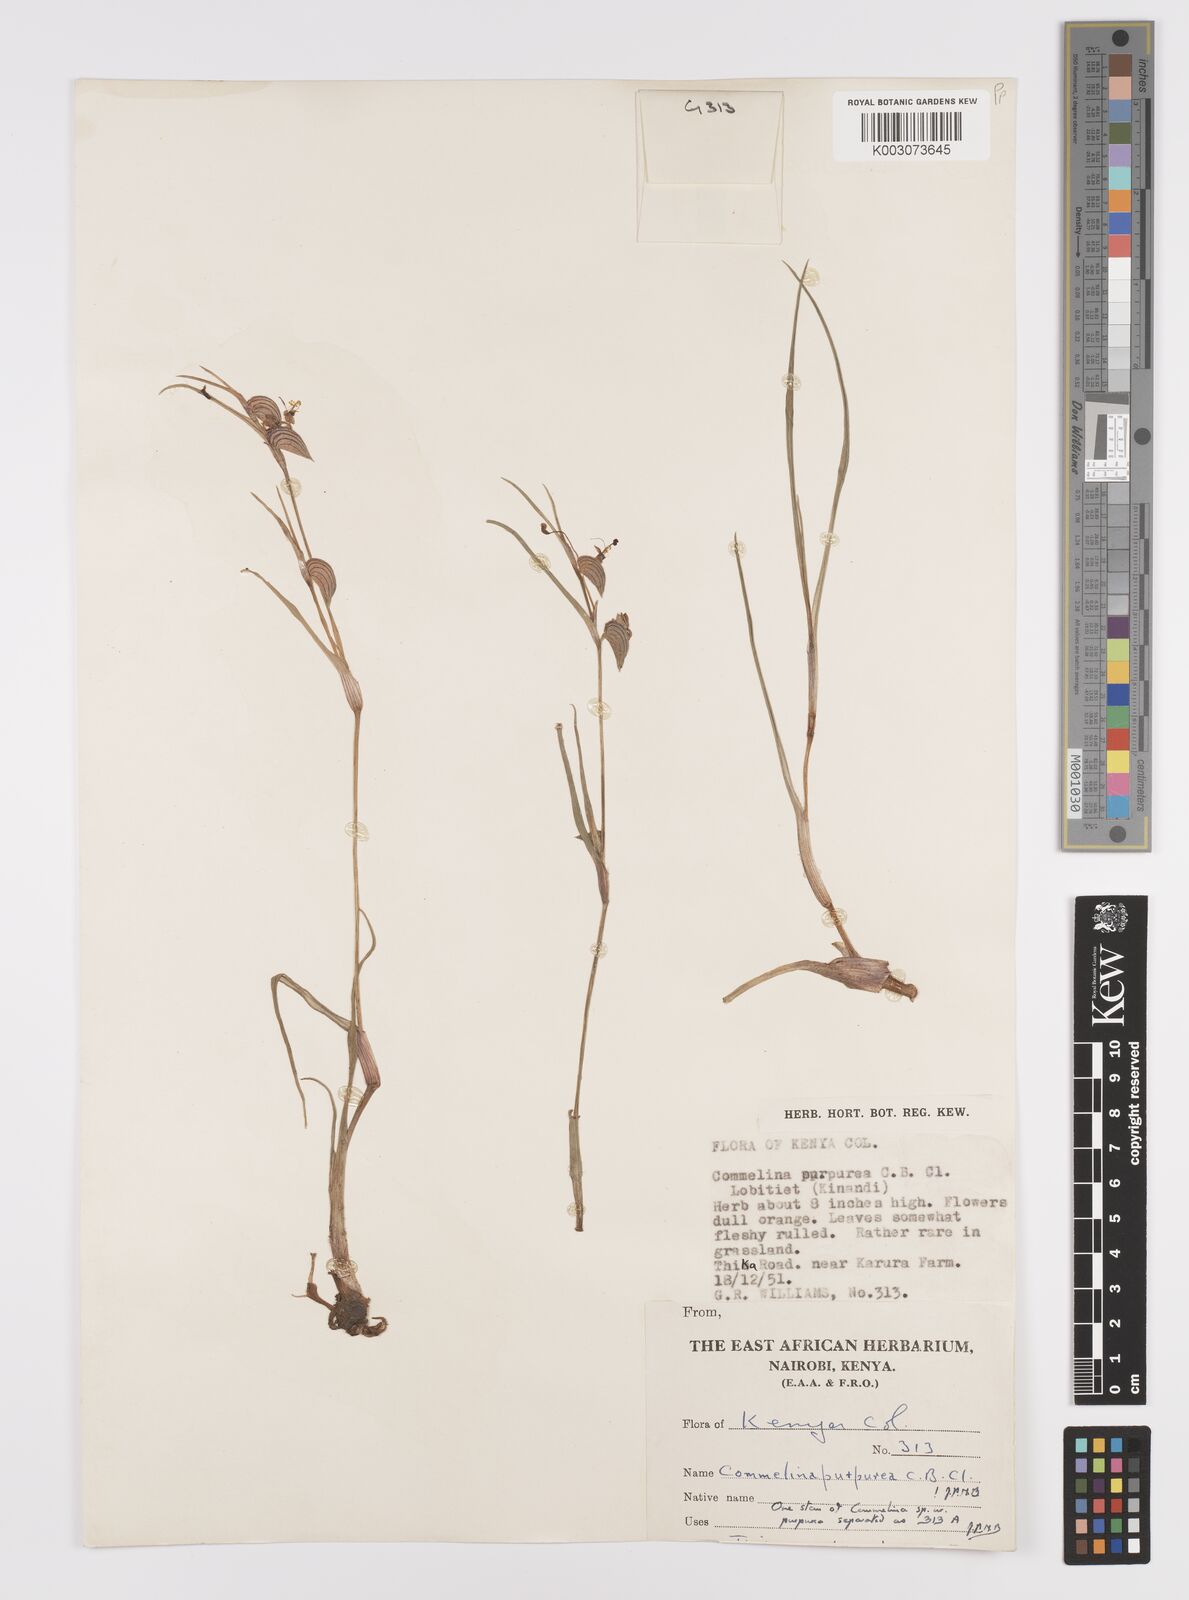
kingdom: Plantae
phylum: Tracheophyta
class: Liliopsida
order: Commelinales
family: Commelinaceae
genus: Commelina
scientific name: Commelina purpurea
